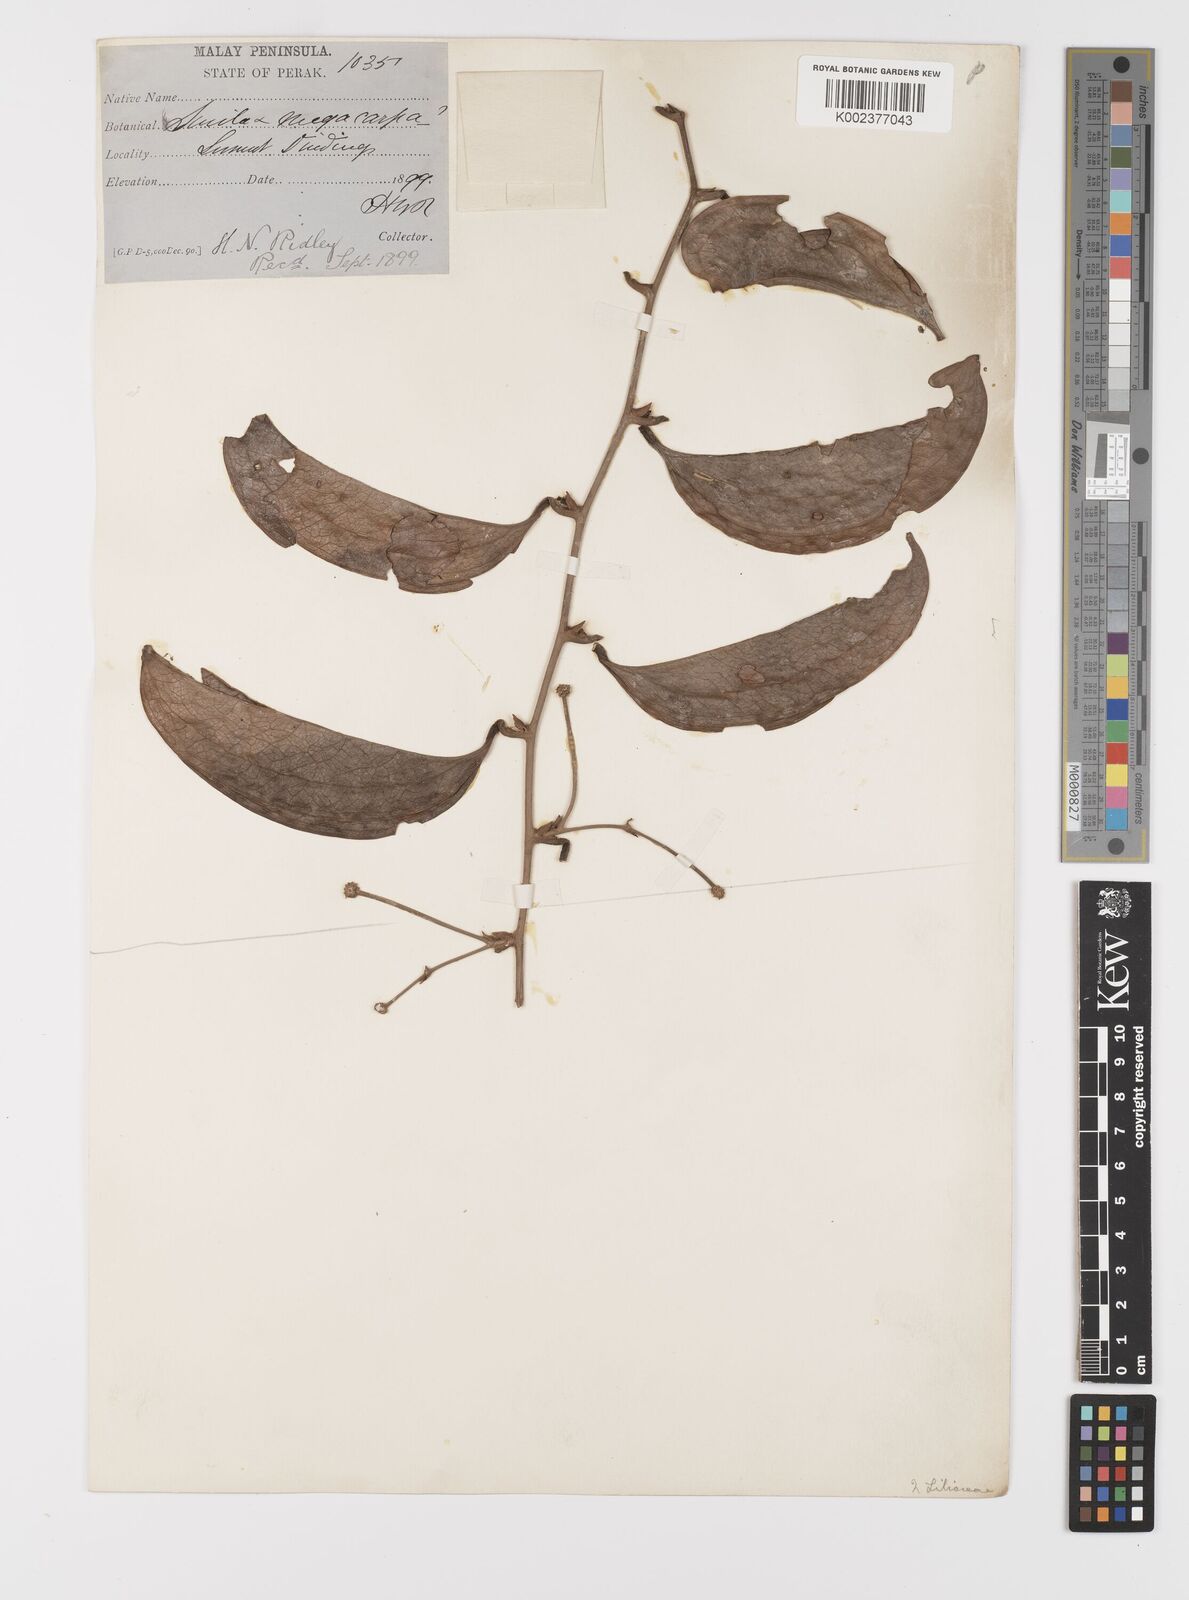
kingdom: Plantae
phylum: Tracheophyta
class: Liliopsida
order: Liliales
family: Smilacaceae
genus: Smilax
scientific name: Smilax megacarpa
